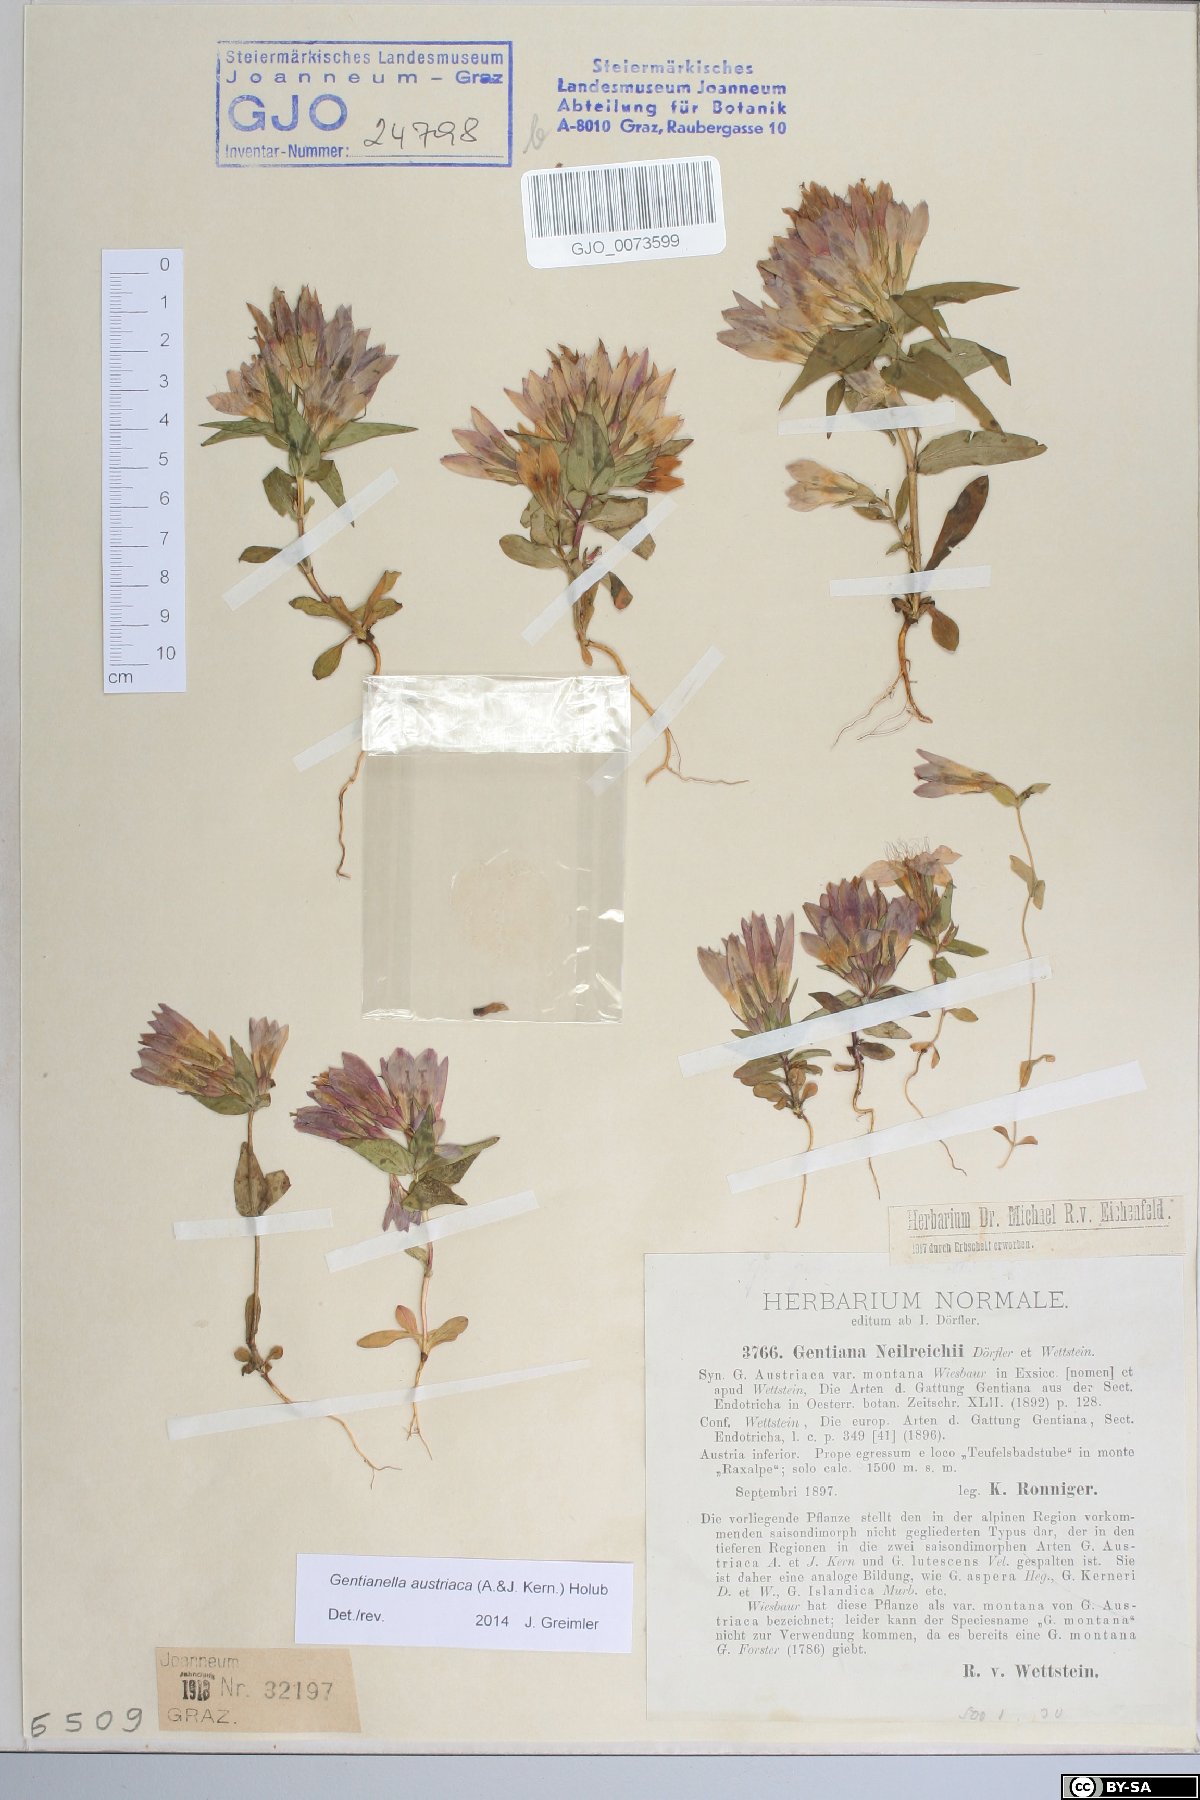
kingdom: Plantae
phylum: Tracheophyta
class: Magnoliopsida
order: Gentianales
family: Gentianaceae
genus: Gentianella
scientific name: Gentianella austriaca
